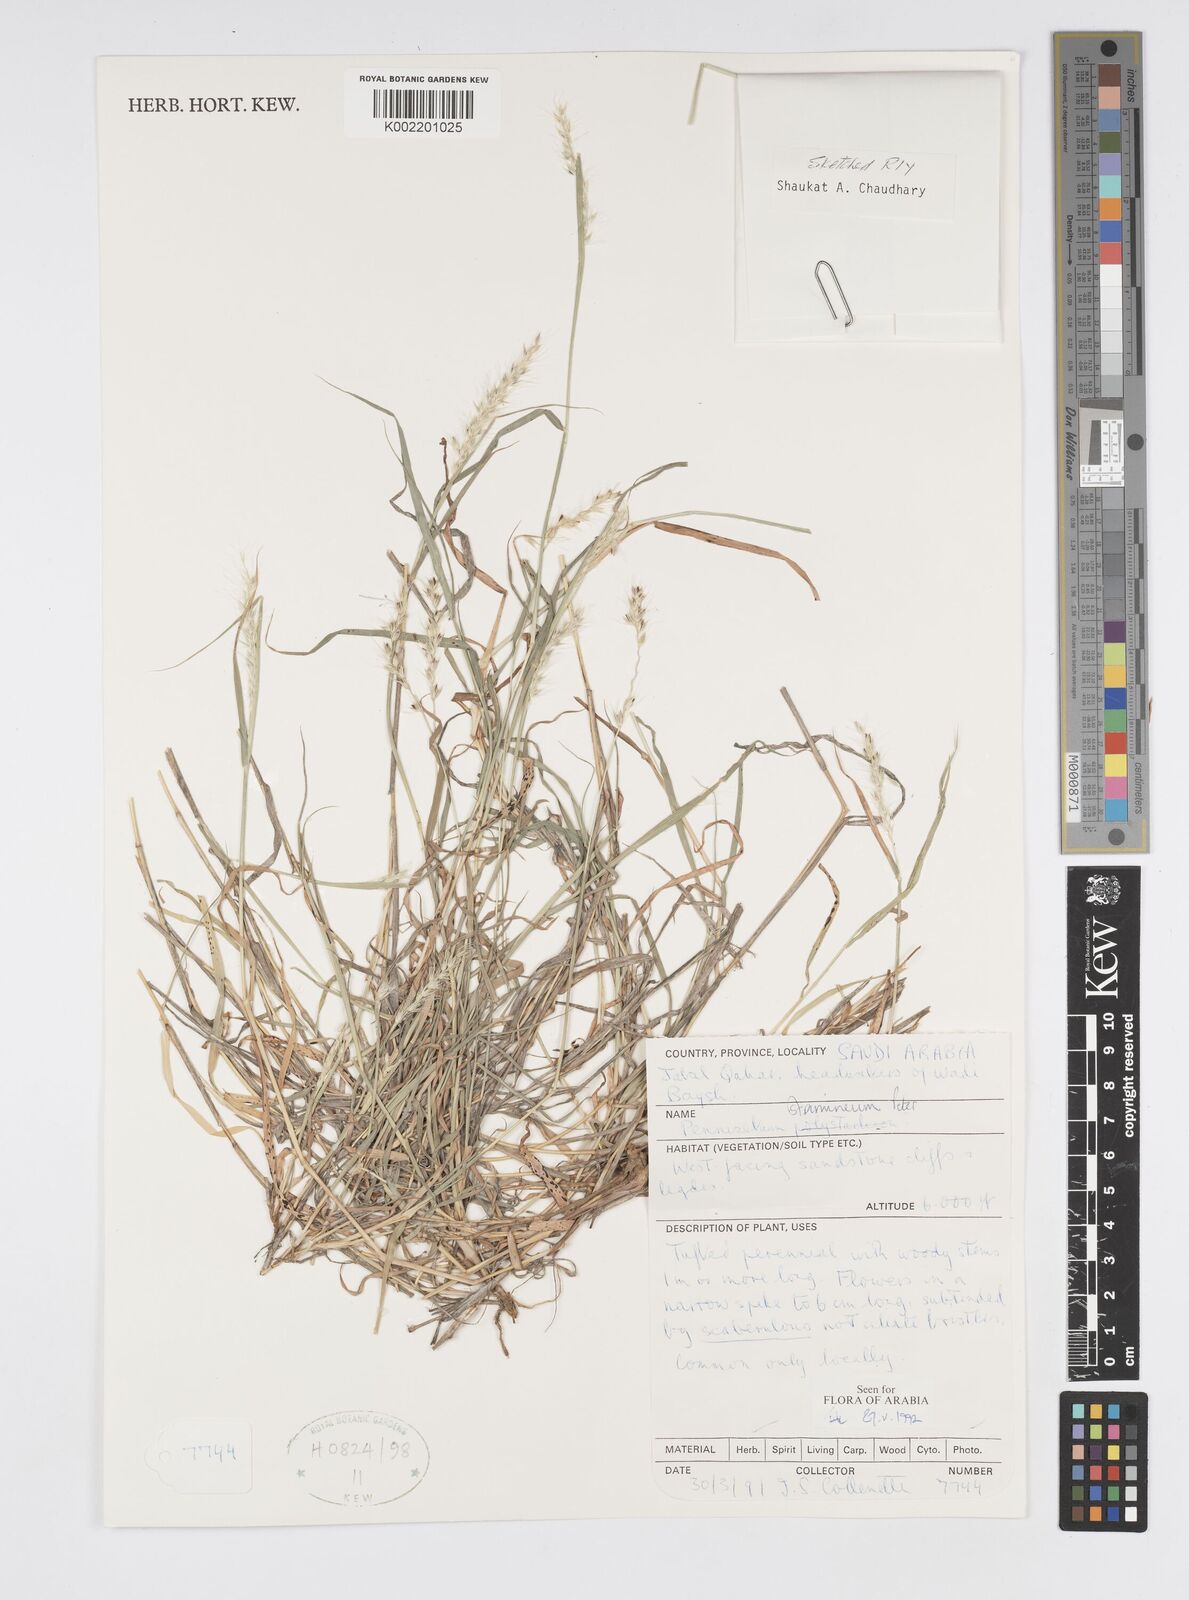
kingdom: Plantae
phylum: Tracheophyta
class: Liliopsida
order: Poales
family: Poaceae
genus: Cenchrus
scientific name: Cenchrus stramineus
